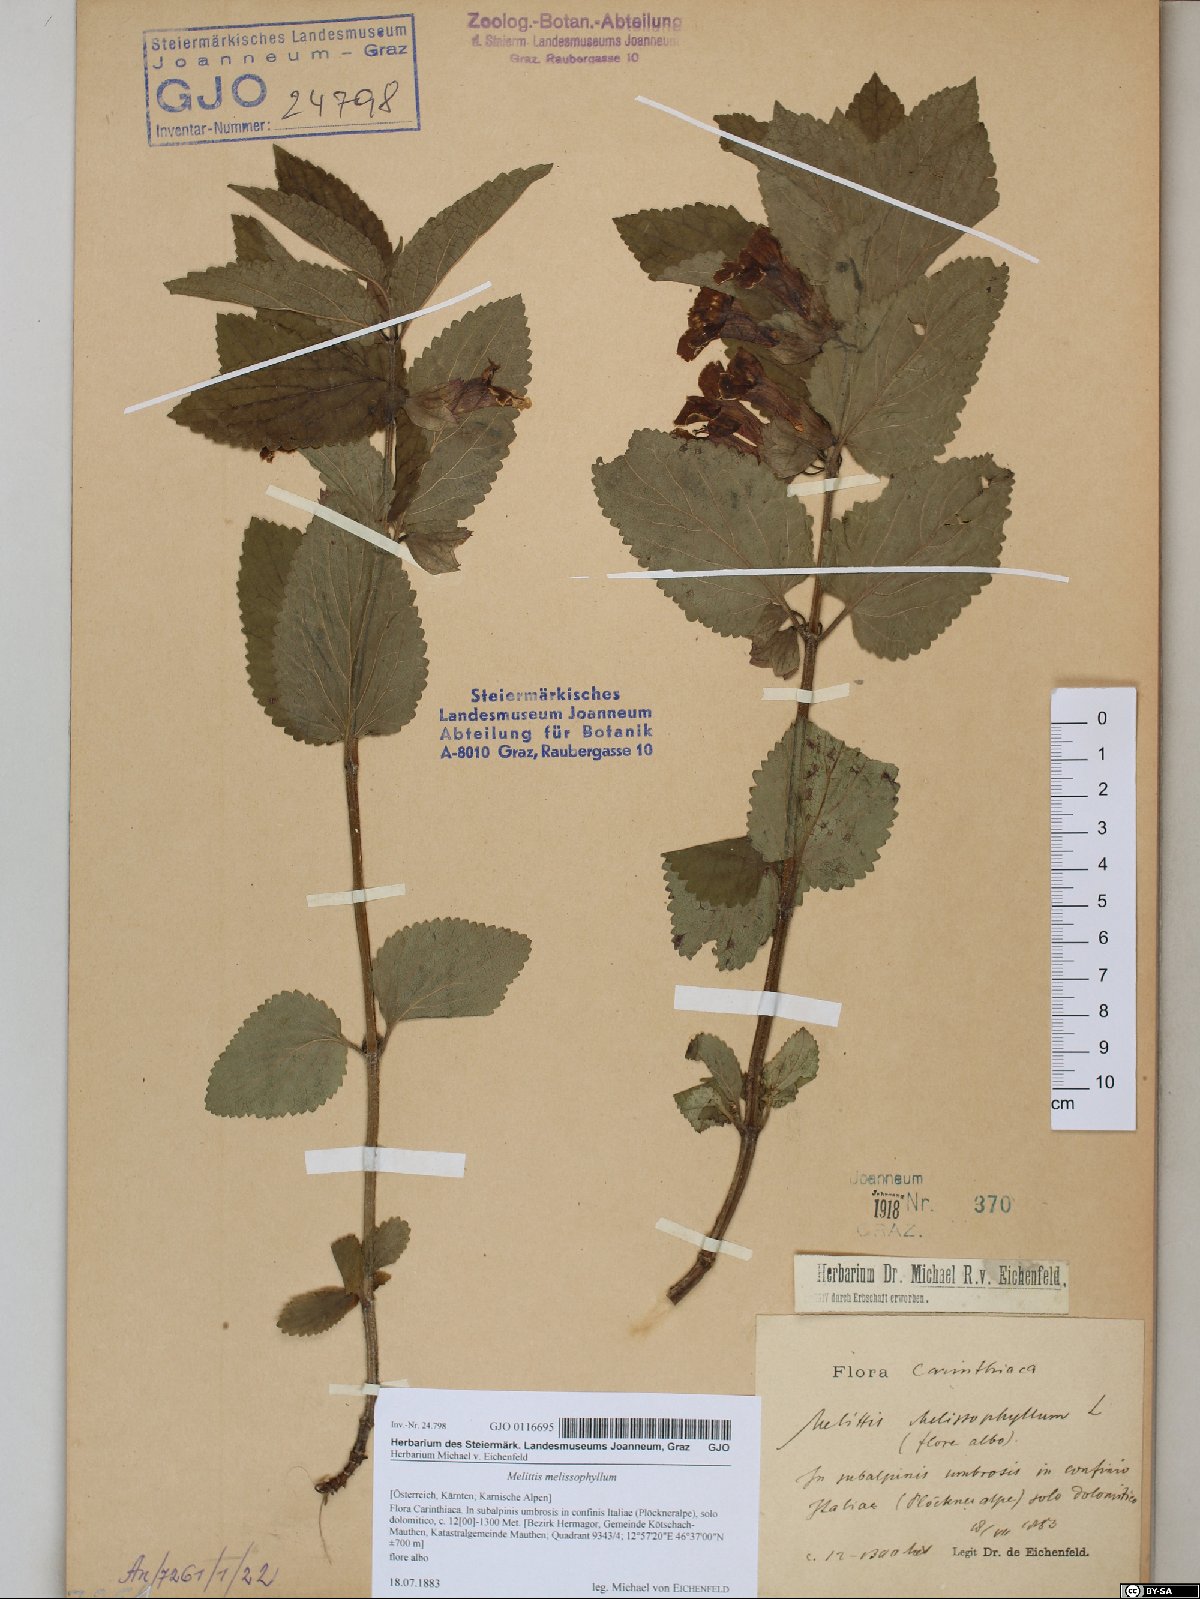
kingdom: Plantae
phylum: Tracheophyta
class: Magnoliopsida
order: Lamiales
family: Lamiaceae
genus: Melittis
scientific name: Melittis melissophyllum
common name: Bastard balm
